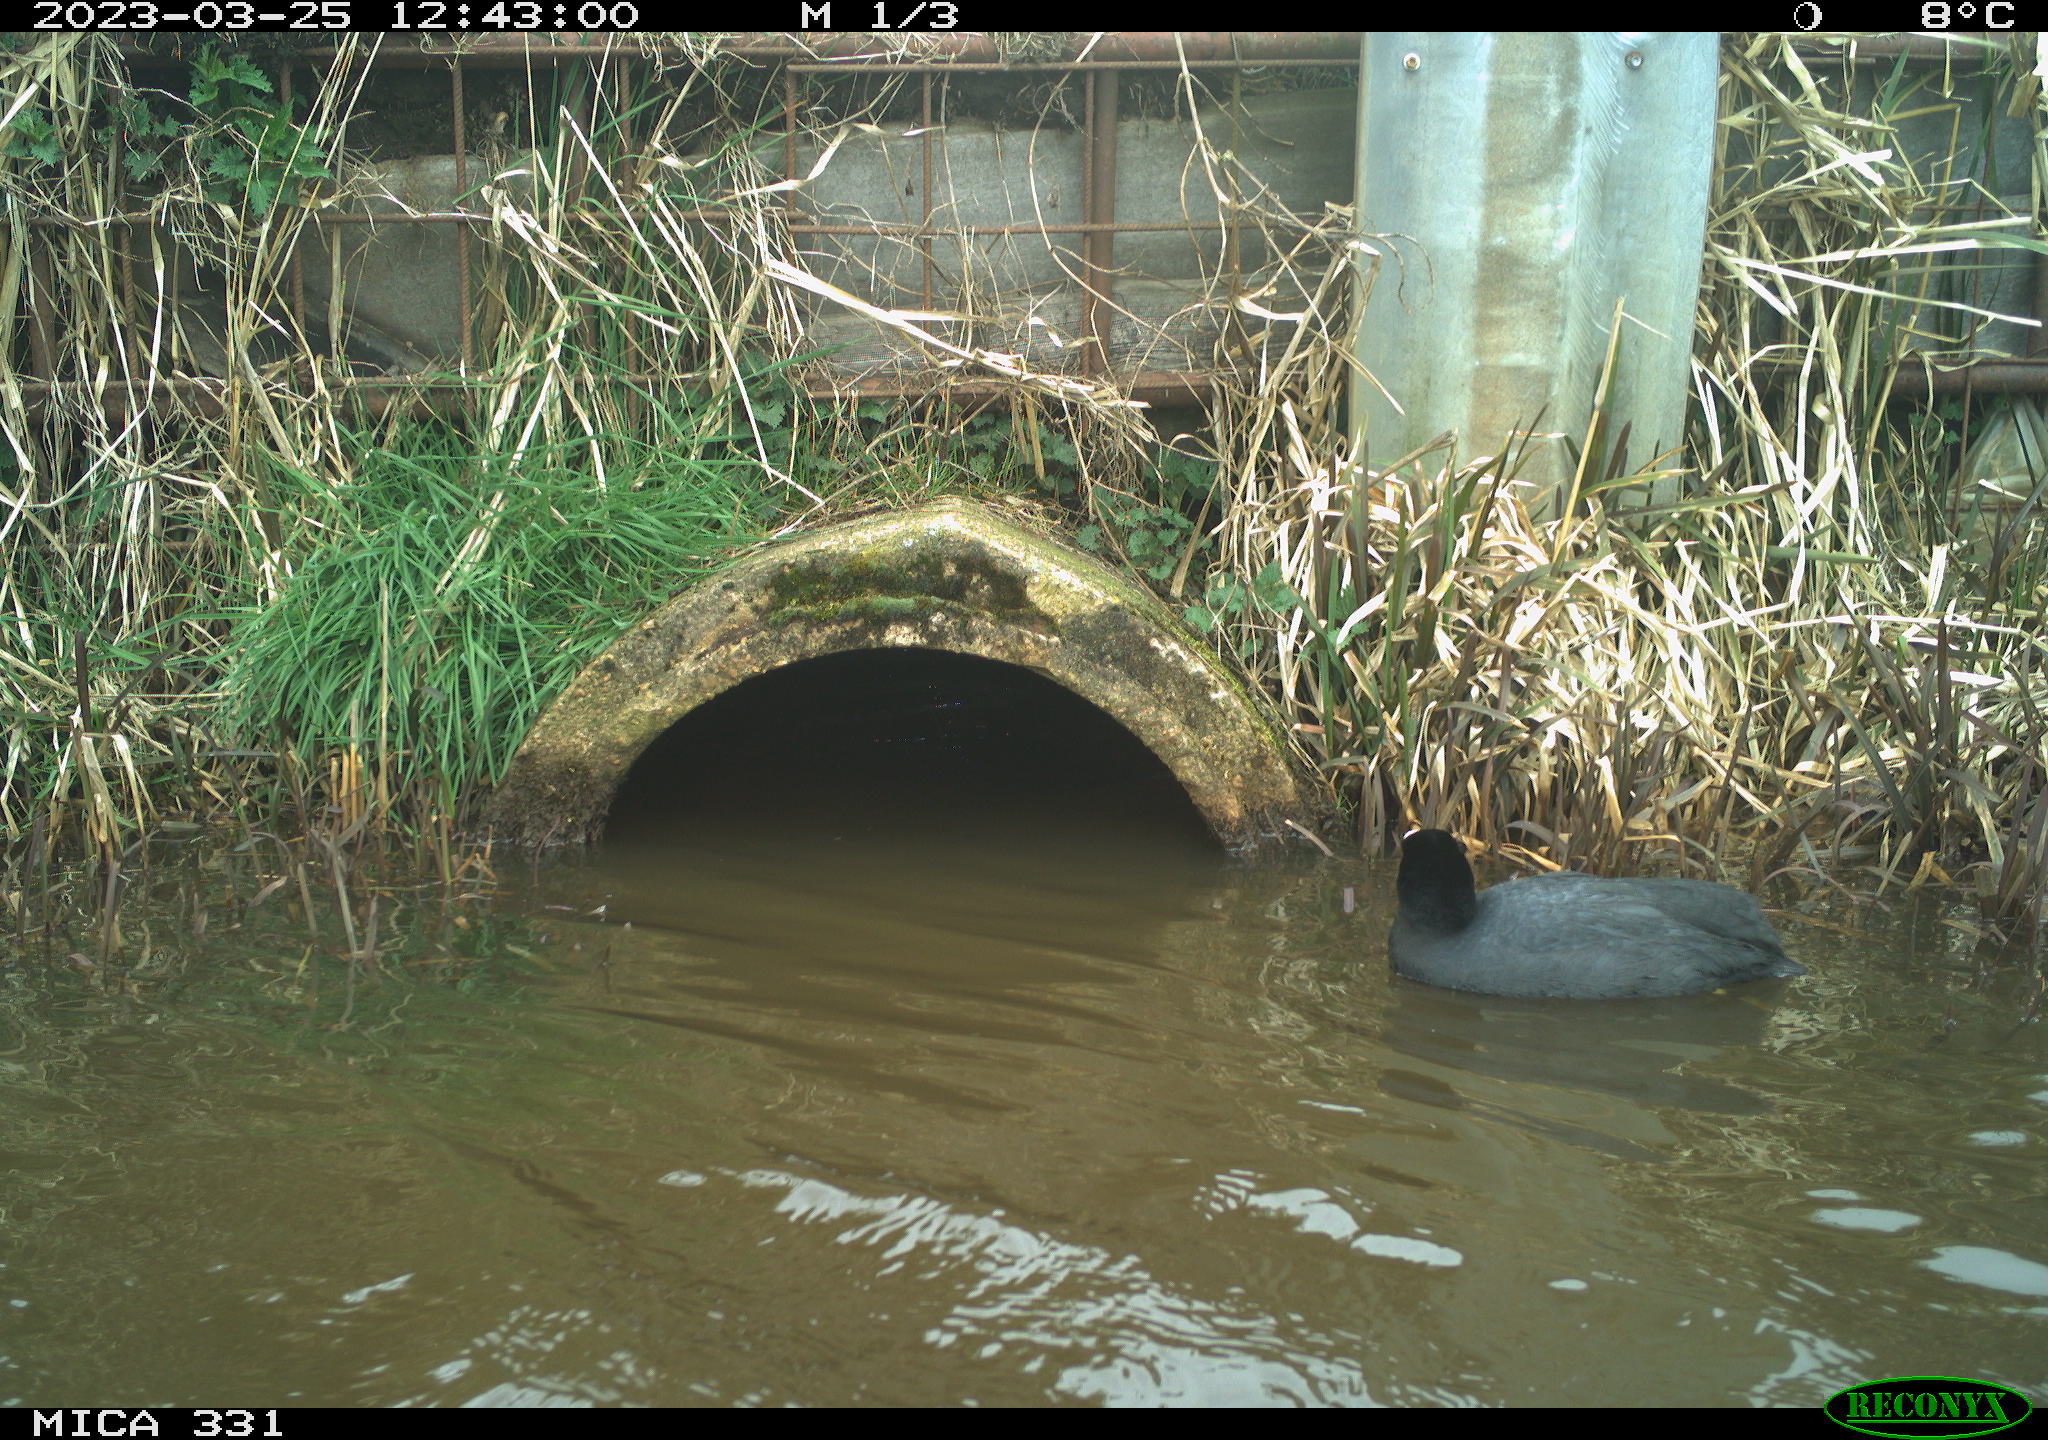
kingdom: Animalia
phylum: Chordata
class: Aves
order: Gruiformes
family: Rallidae
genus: Fulica
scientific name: Fulica atra
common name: Eurasian coot
